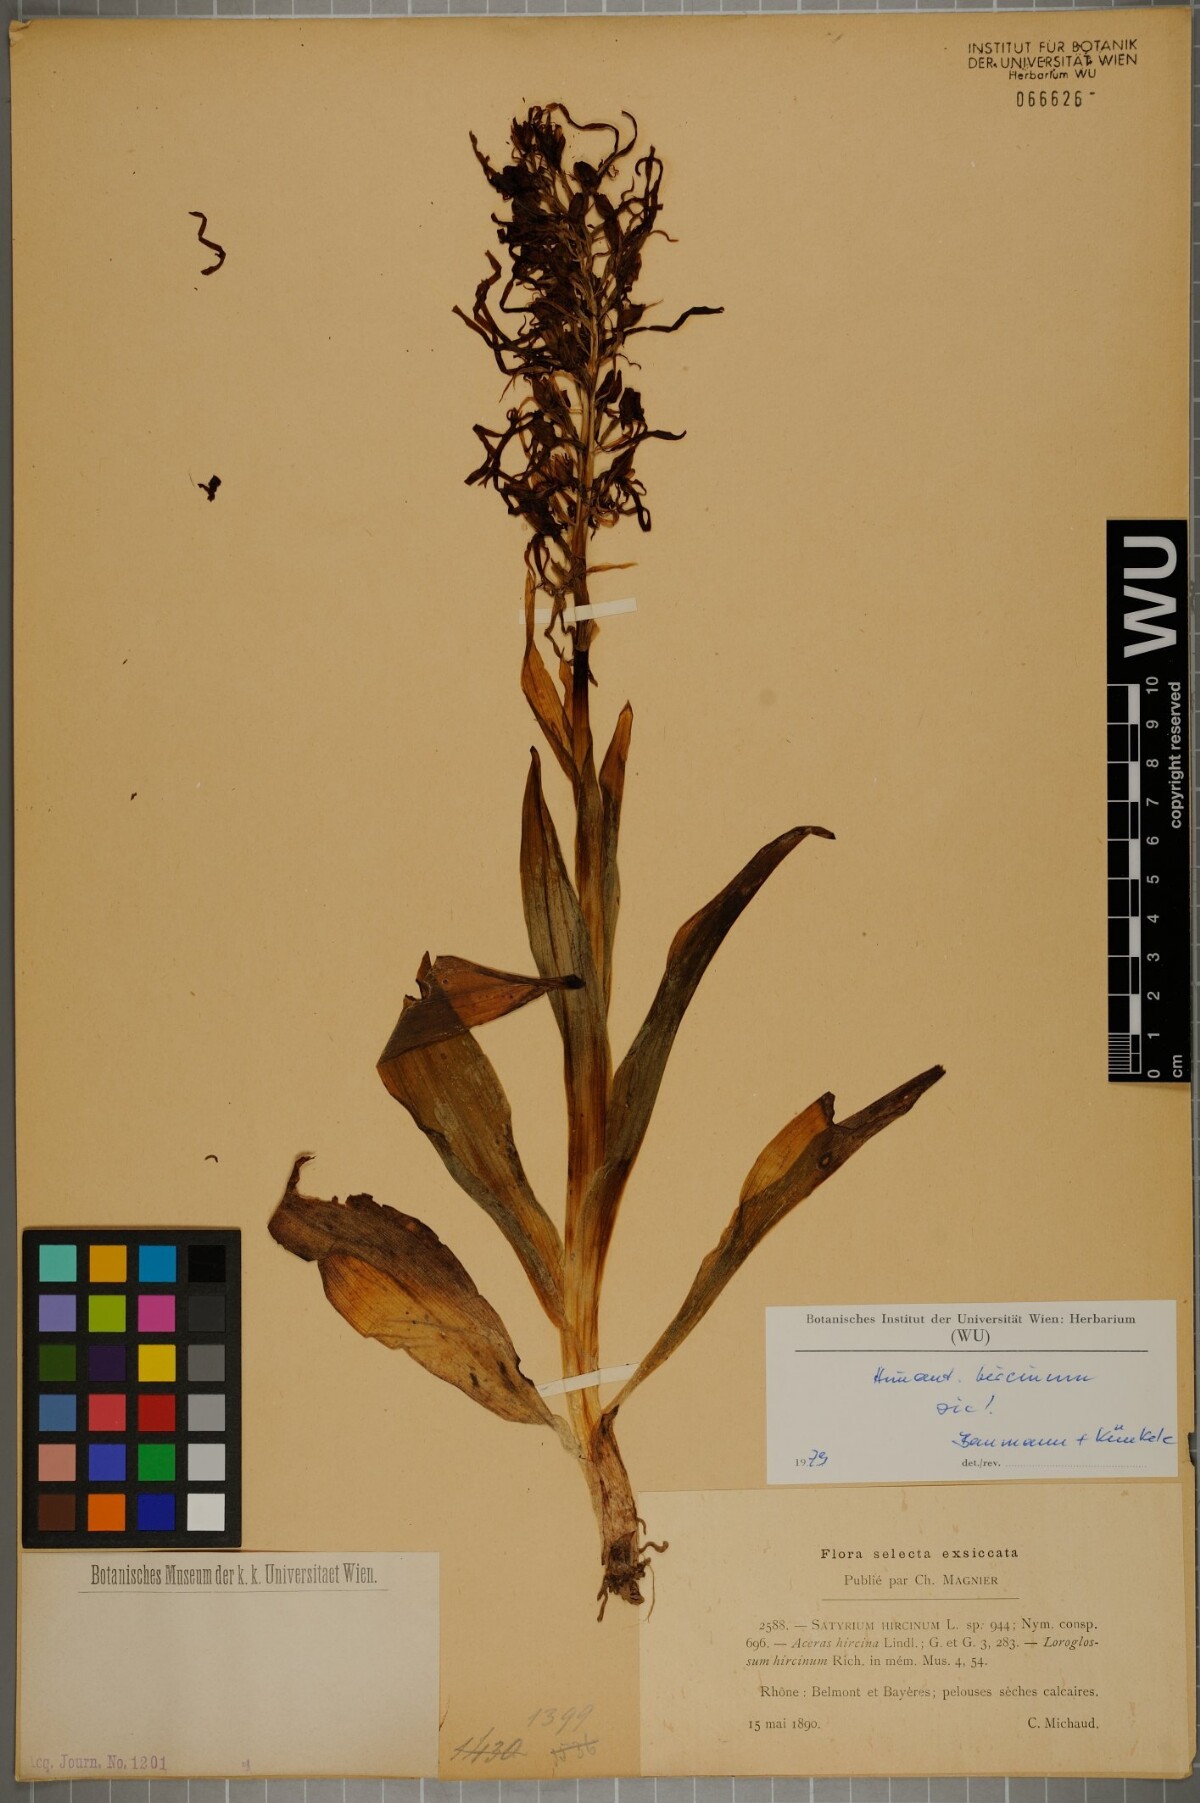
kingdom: Plantae
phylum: Tracheophyta
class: Liliopsida
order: Asparagales
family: Orchidaceae
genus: Himantoglossum
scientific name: Himantoglossum hircinum
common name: Lizard orchid
